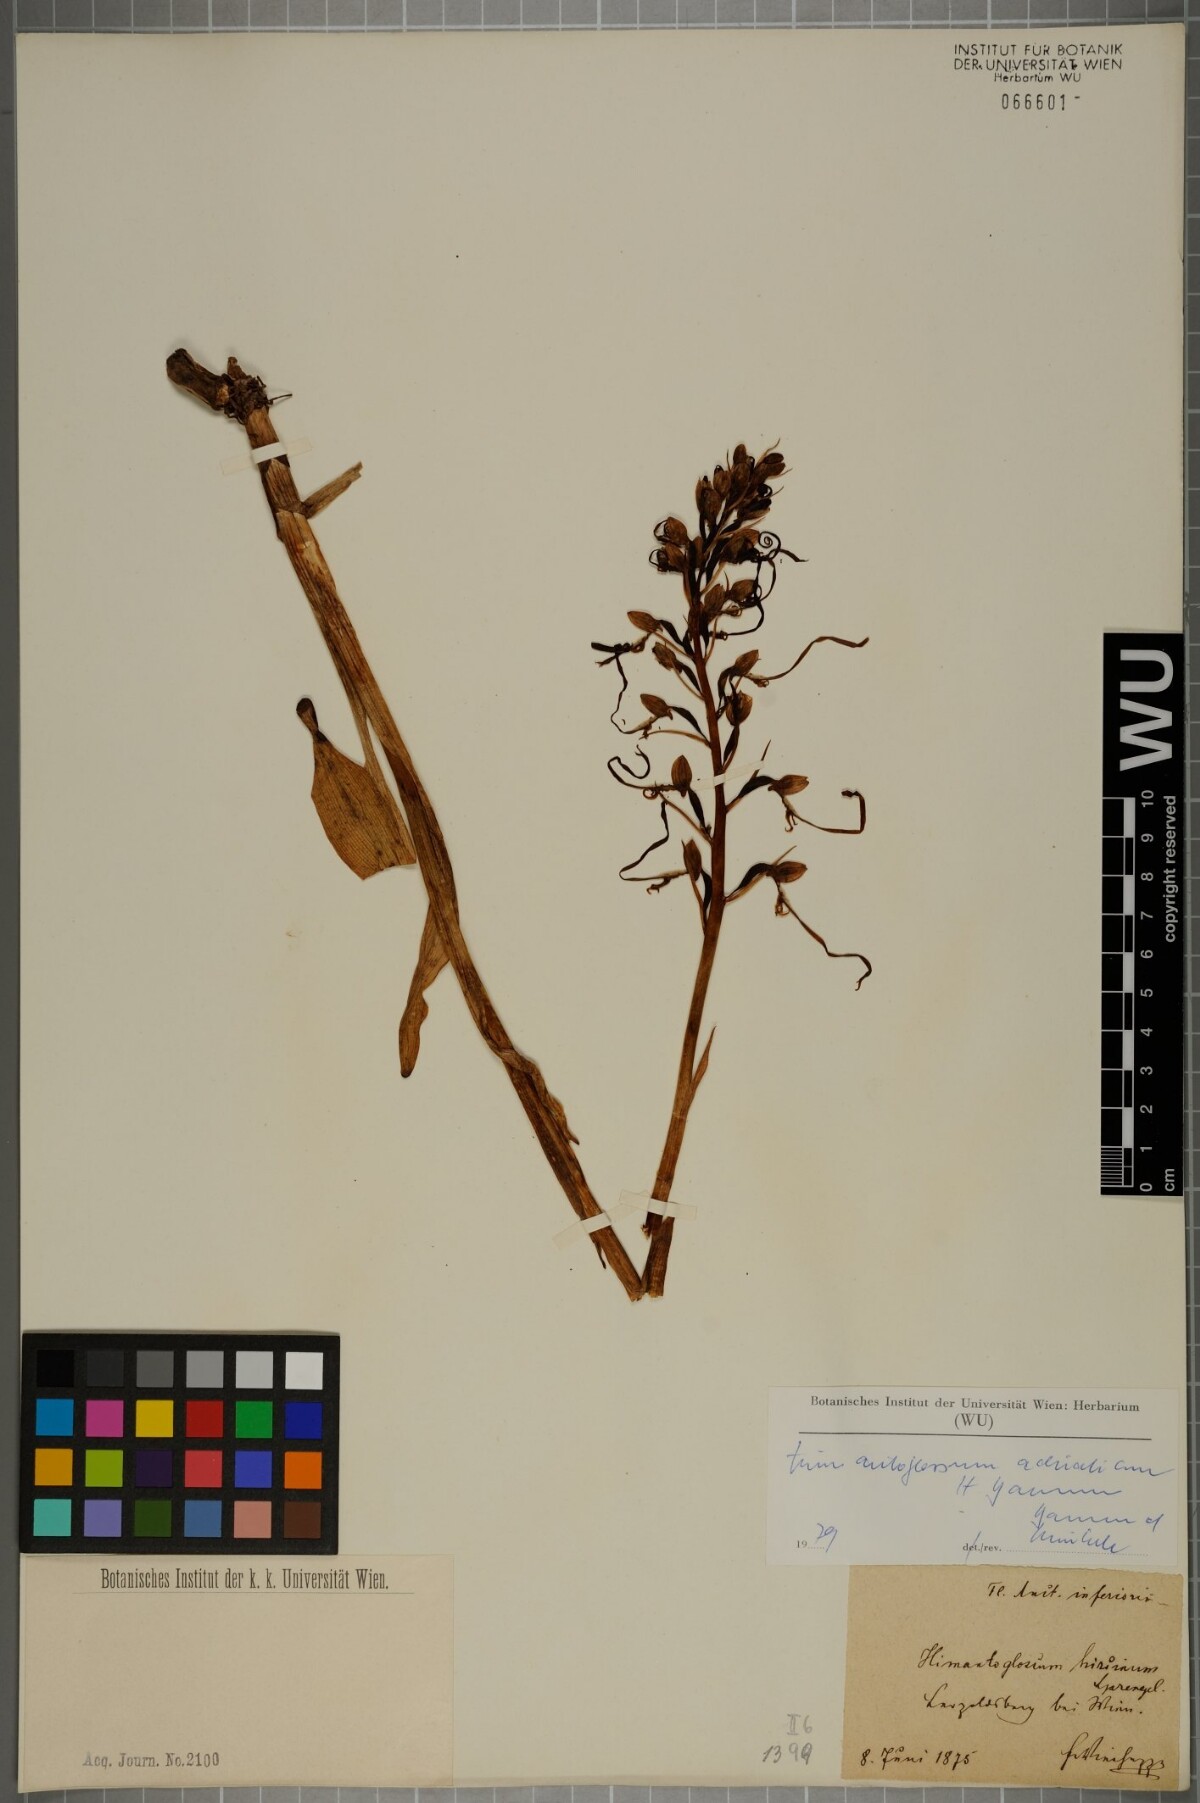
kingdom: Plantae
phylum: Tracheophyta
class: Liliopsida
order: Asparagales
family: Orchidaceae
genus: Himantoglossum
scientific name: Himantoglossum adriaticum
